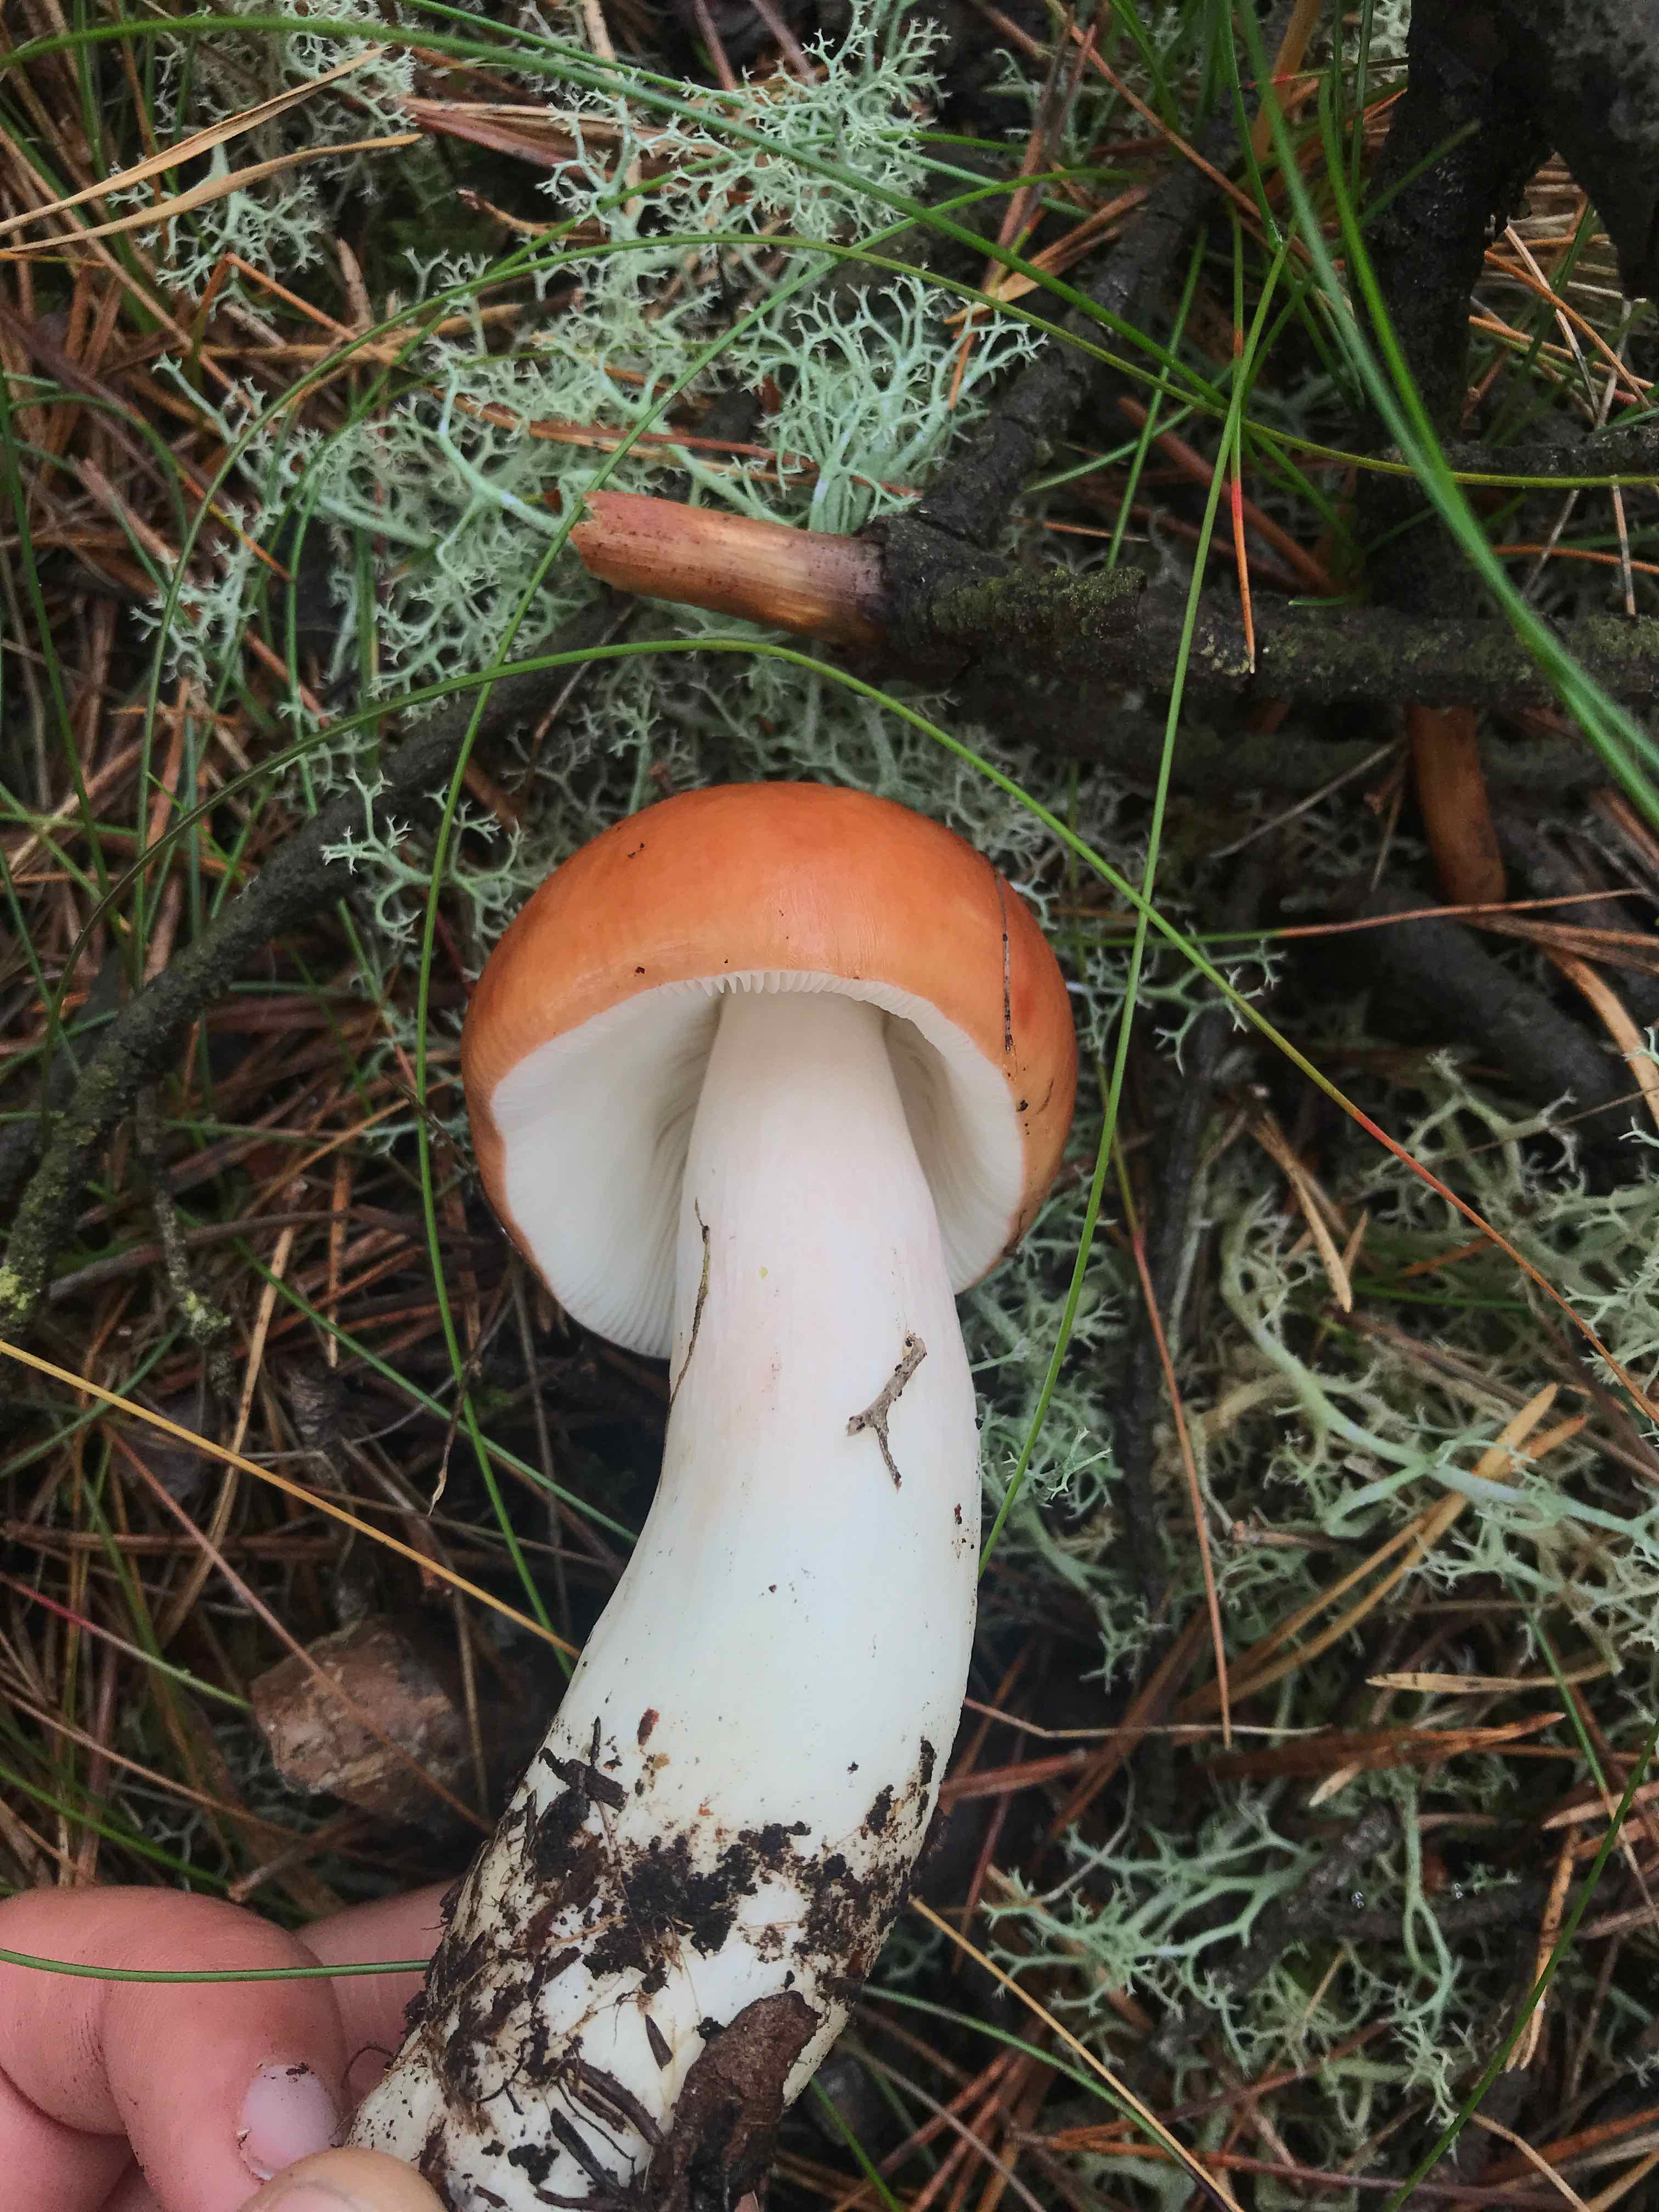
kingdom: Fungi
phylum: Basidiomycota
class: Agaricomycetes
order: Russulales
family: Russulaceae
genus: Russula
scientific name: Russula paludosa
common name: prægtig skørhat
